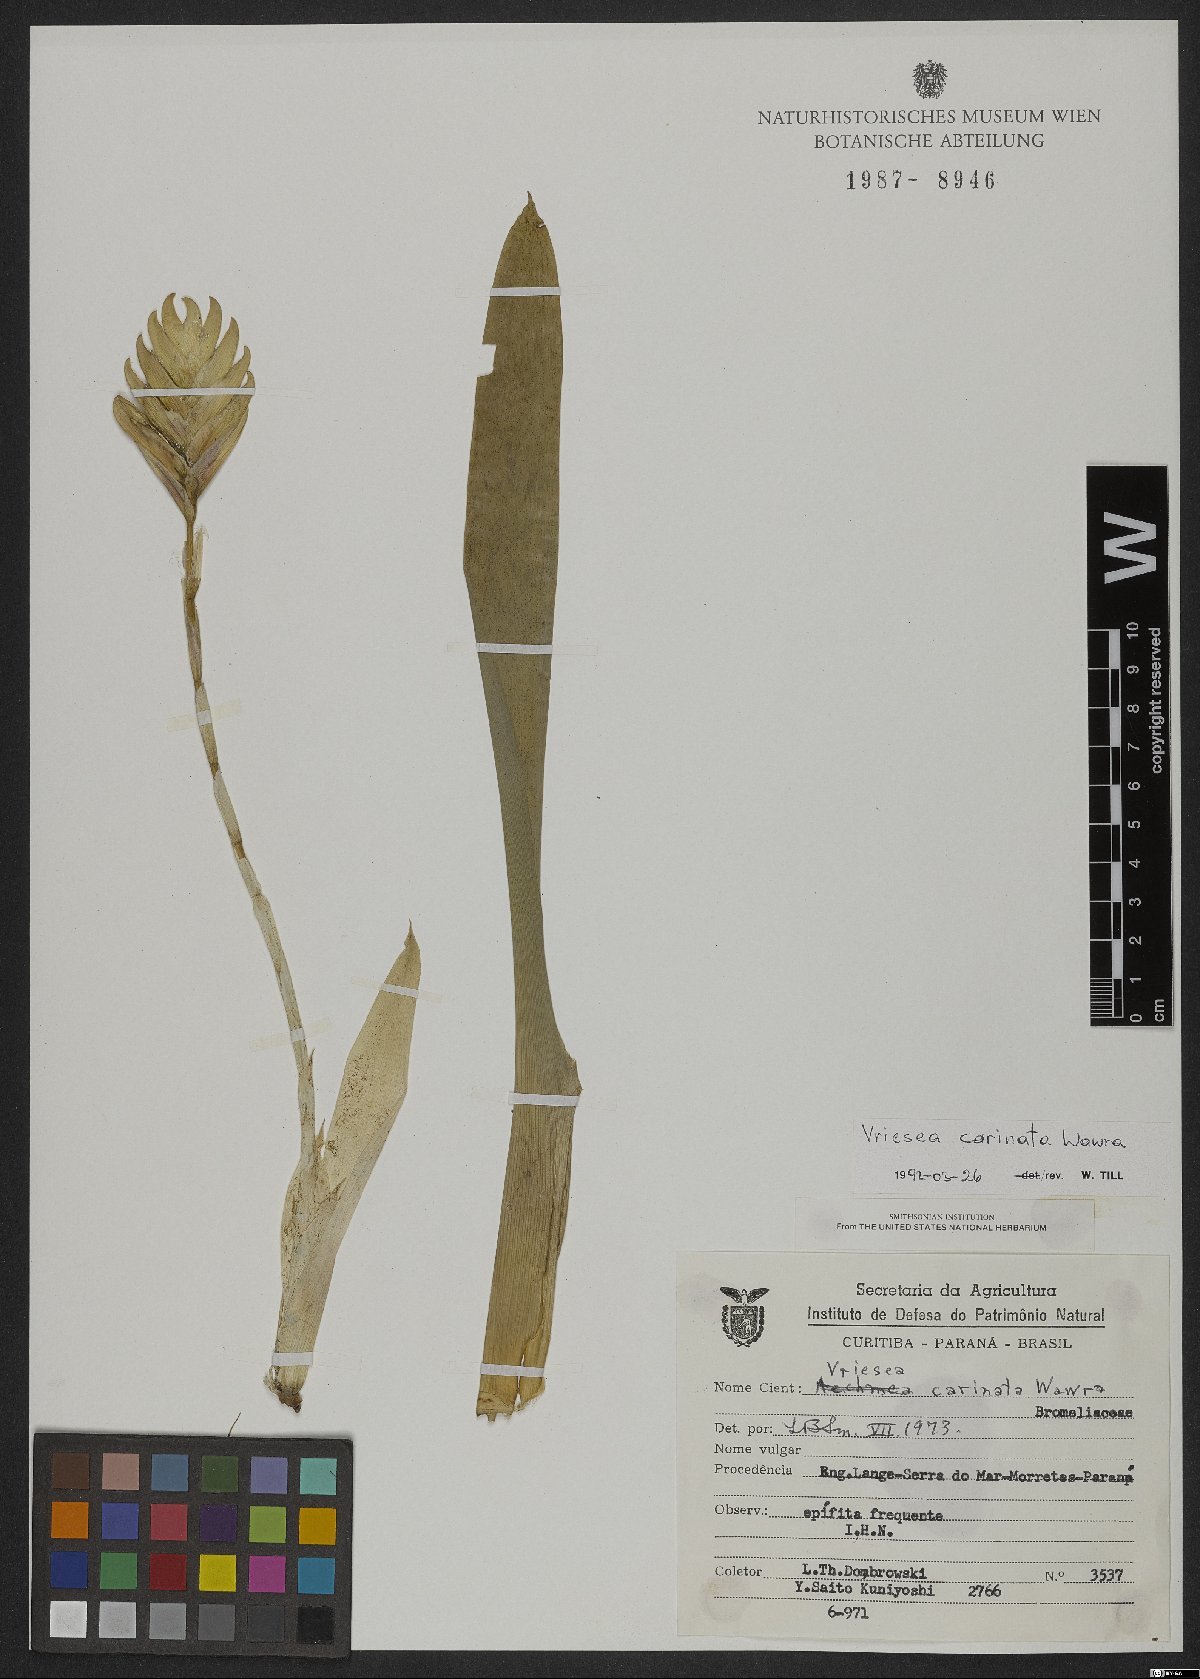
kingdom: Plantae
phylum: Tracheophyta
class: Liliopsida
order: Poales
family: Bromeliaceae
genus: Vriesea
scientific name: Vriesea carinata
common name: Lobster-claws
